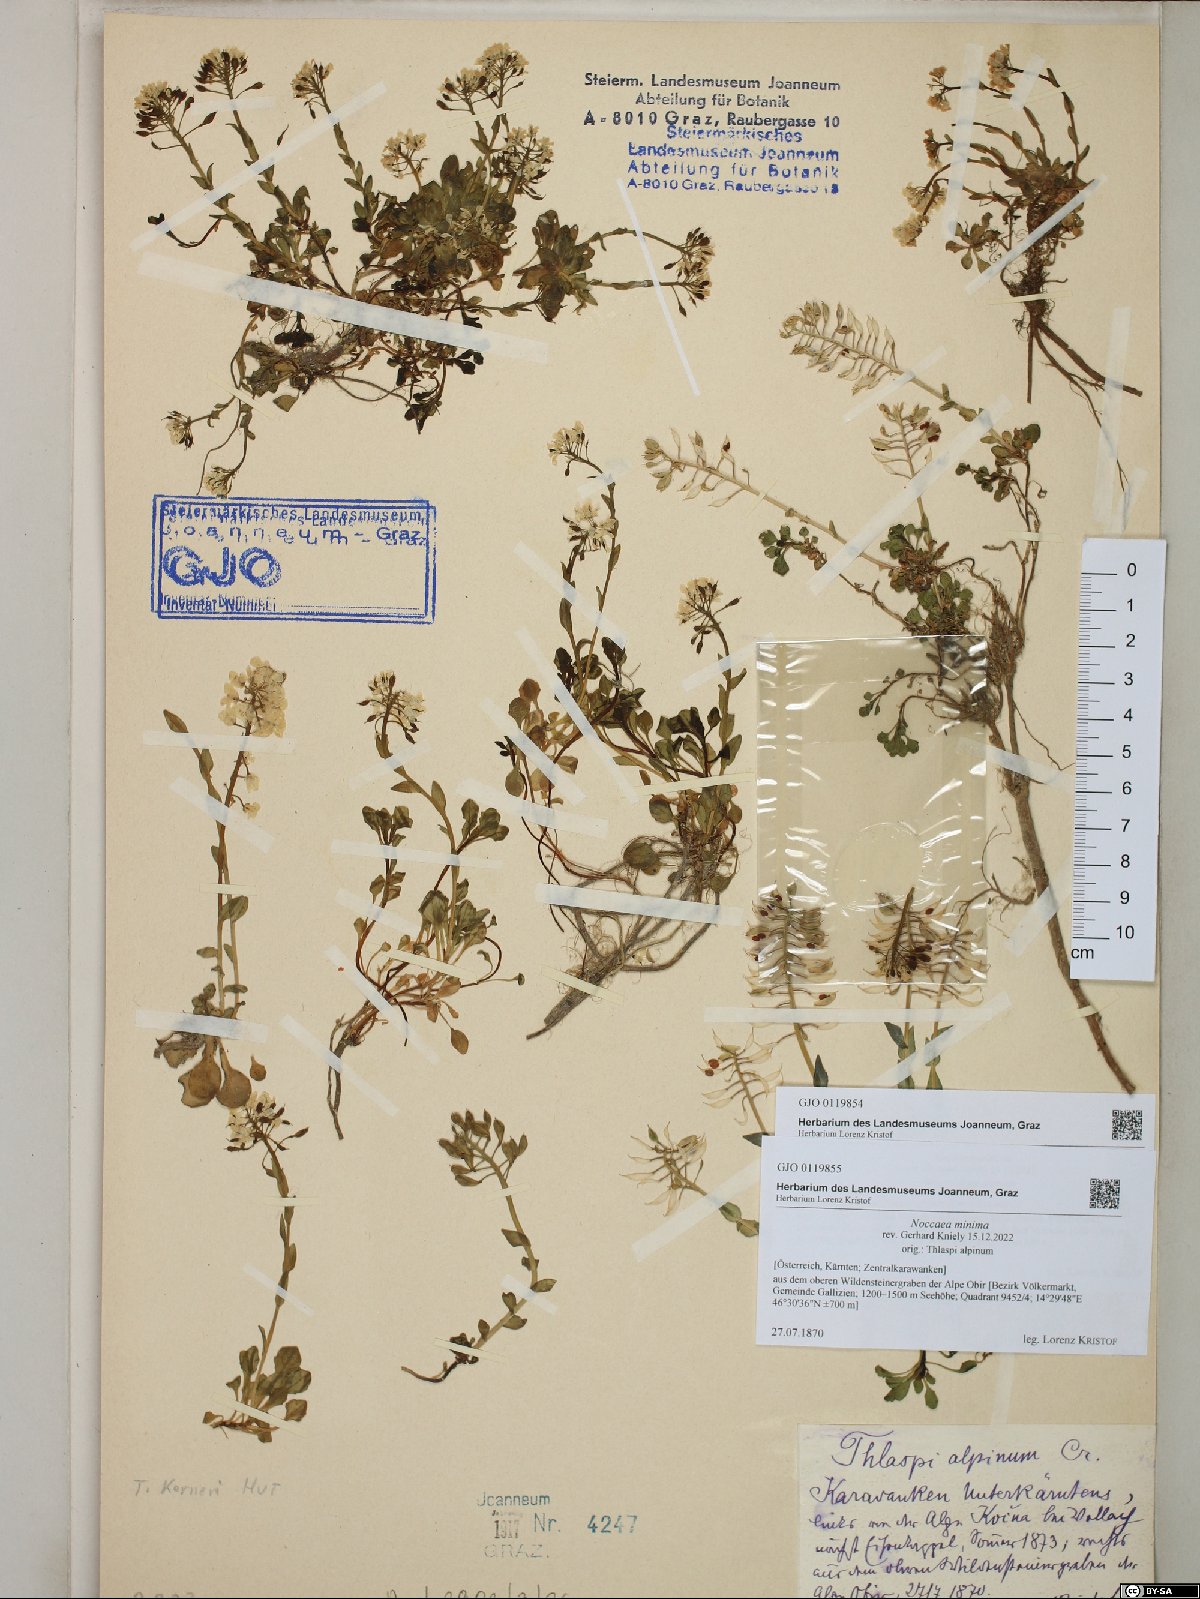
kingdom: Plantae
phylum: Tracheophyta
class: Magnoliopsida
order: Brassicales
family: Brassicaceae
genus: Noccaea
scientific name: Noccaea minima
